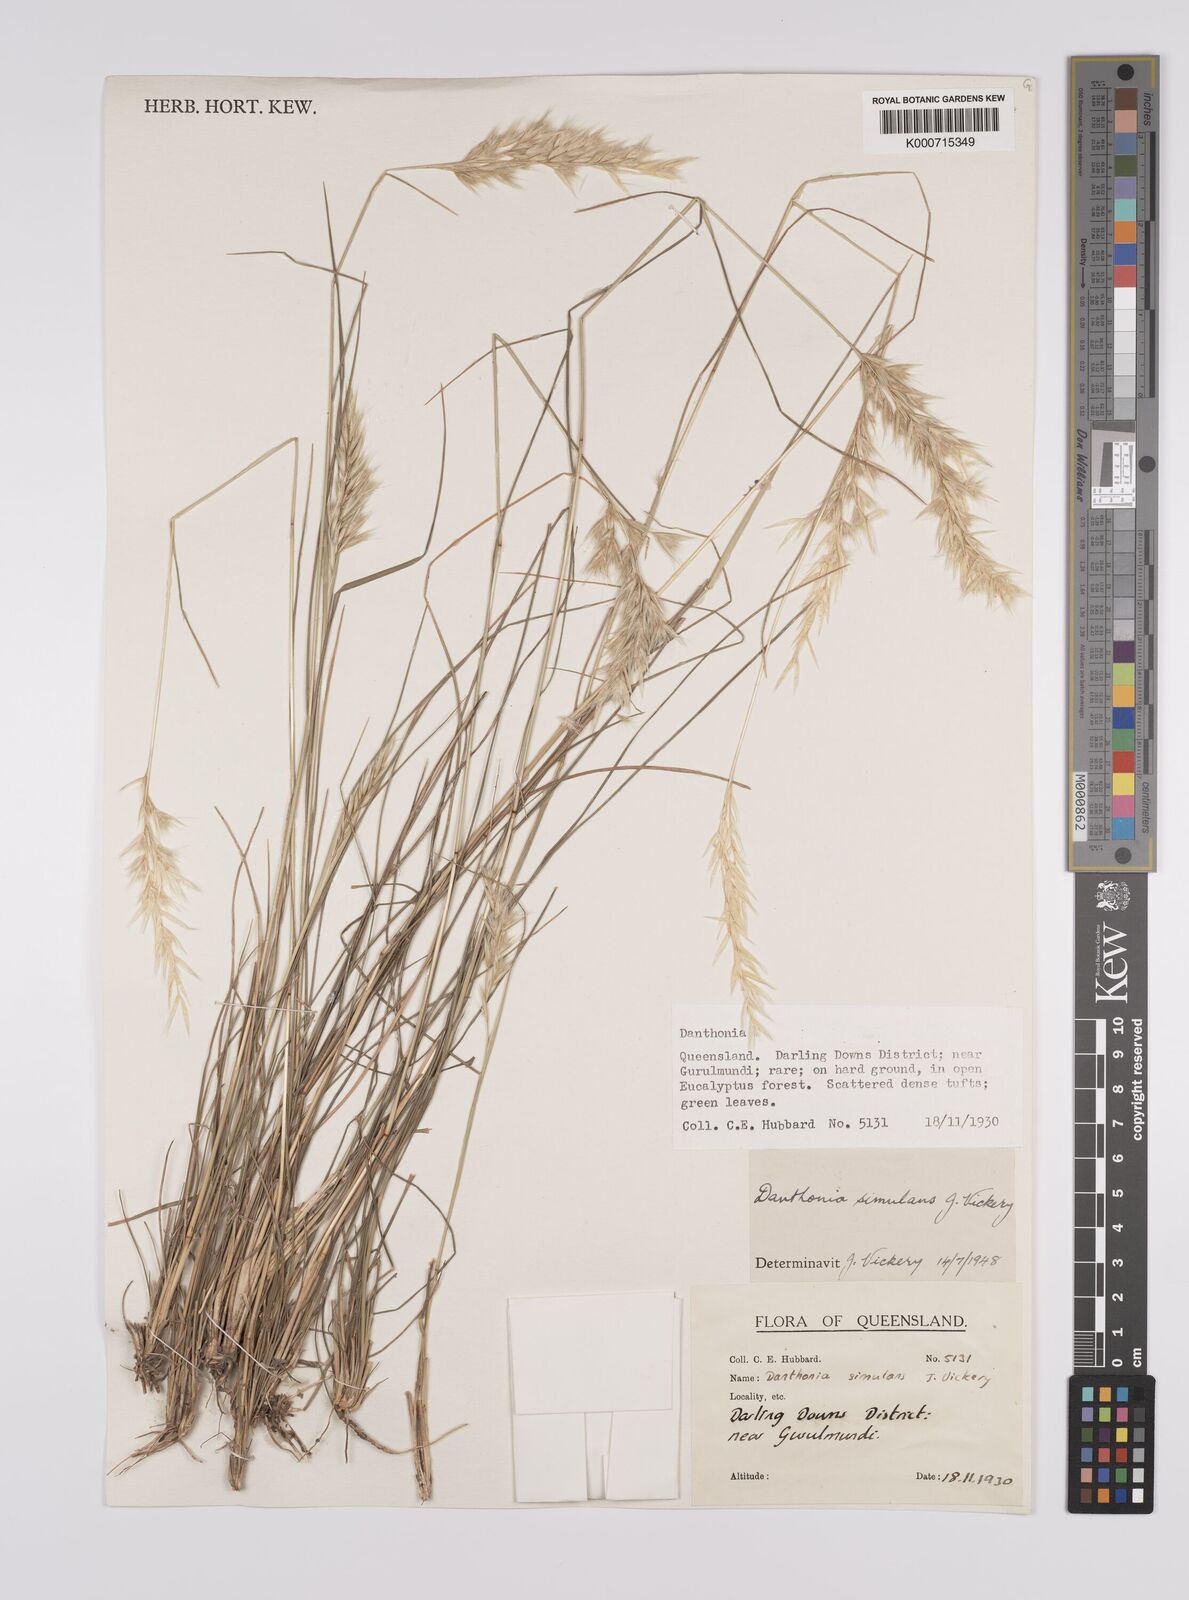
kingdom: Plantae
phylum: Tracheophyta
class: Liliopsida
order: Poales
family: Poaceae
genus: Rytidosperma
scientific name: Rytidosperma bipartitum
